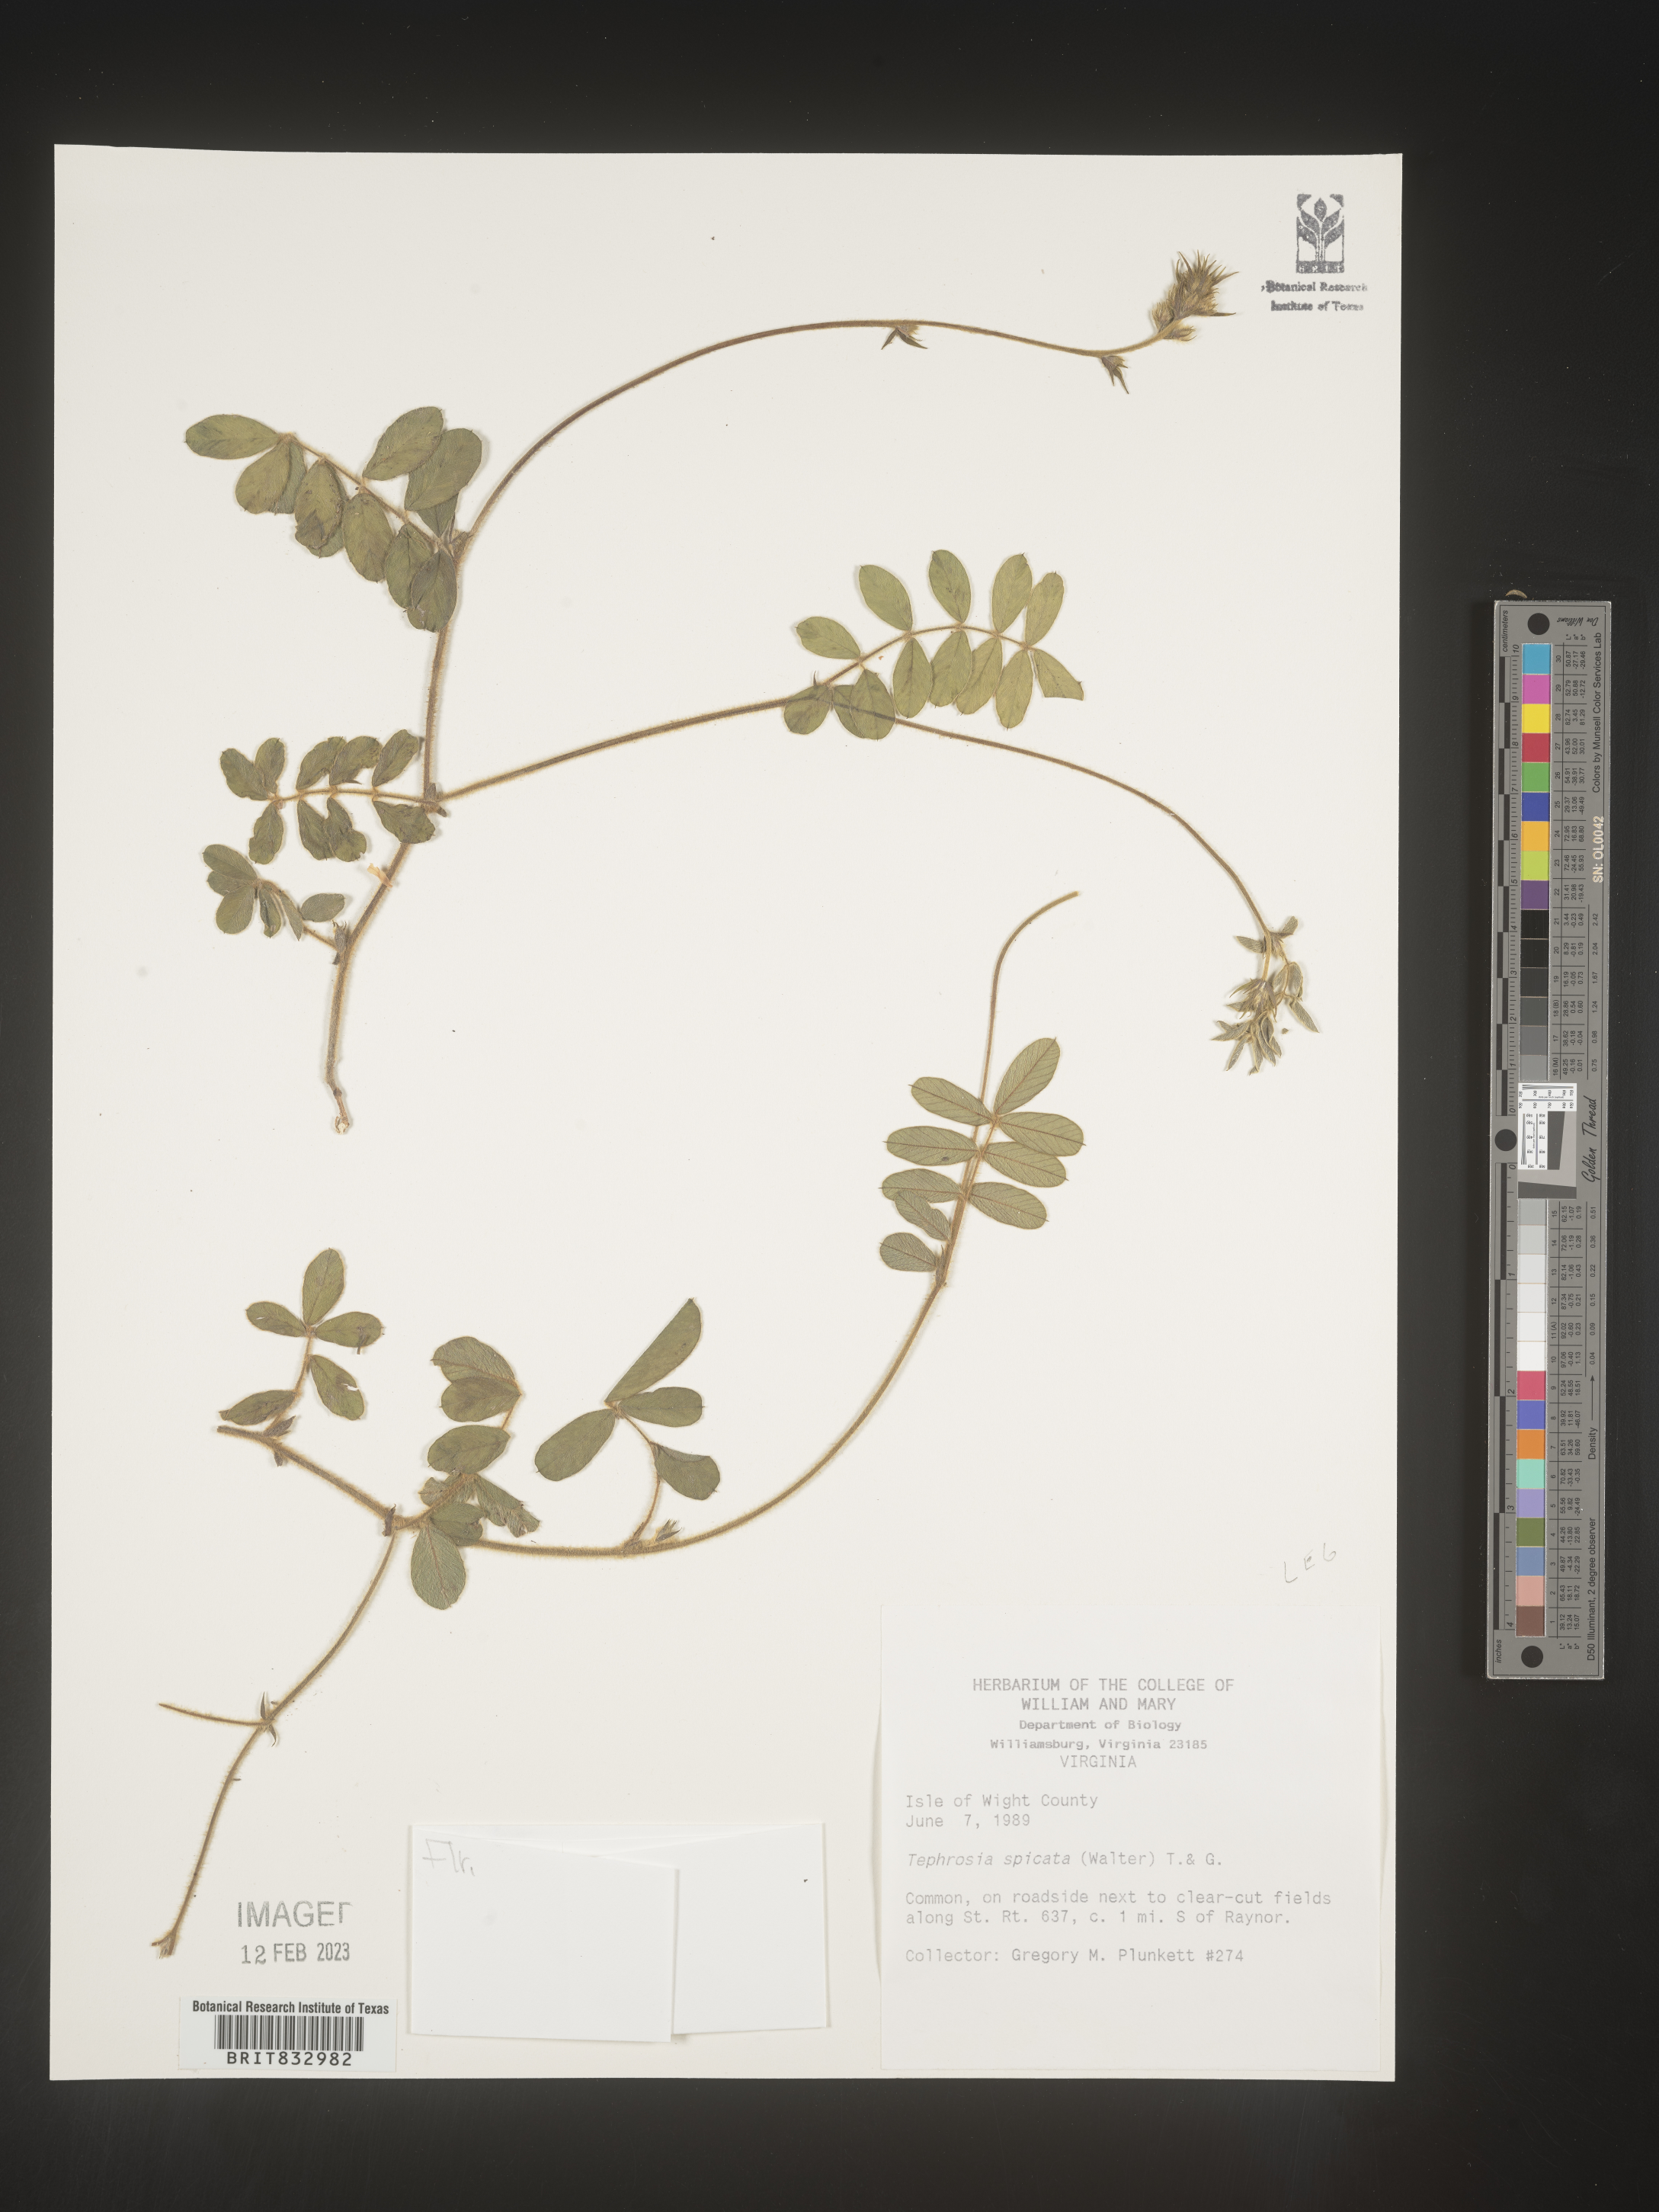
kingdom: Plantae
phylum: Tracheophyta
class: Magnoliopsida
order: Fabales
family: Fabaceae
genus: Tephrosia
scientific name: Tephrosia spicata
